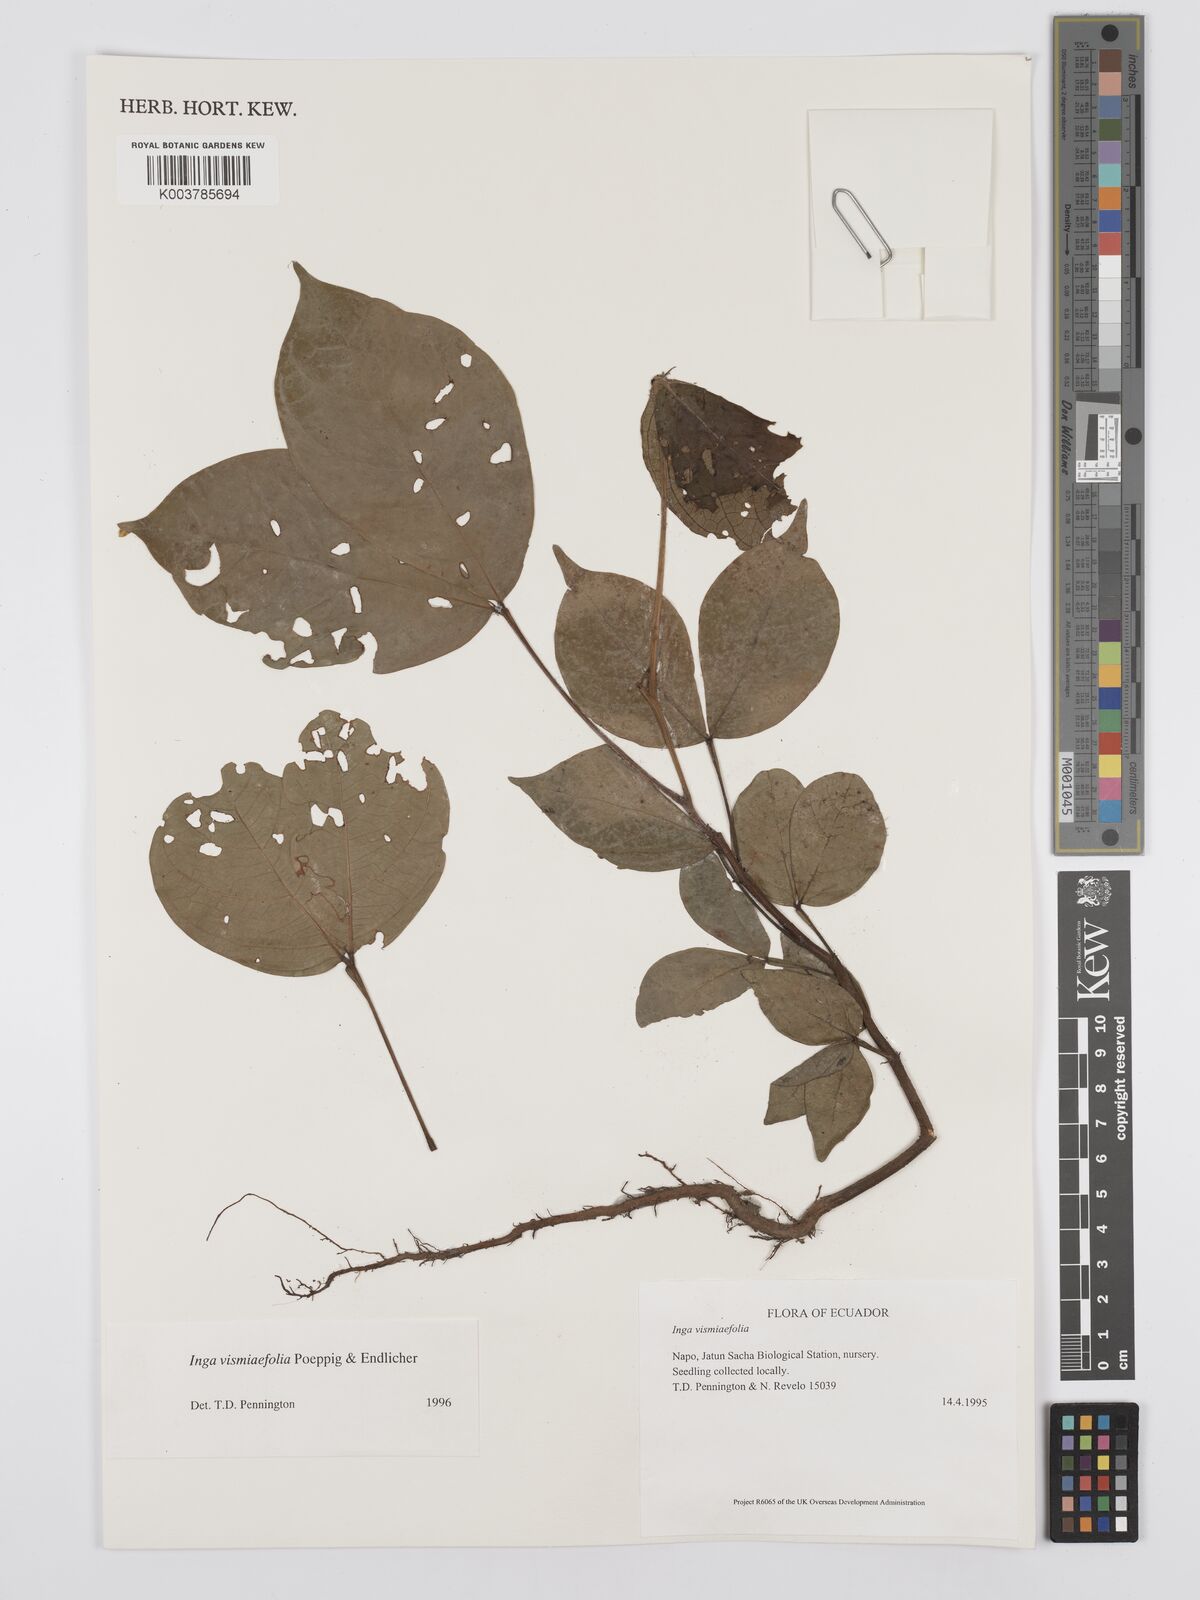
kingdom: Plantae
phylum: Tracheophyta
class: Magnoliopsida
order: Fabales
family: Fabaceae
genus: Inga
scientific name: Inga vismiifolia
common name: Howler monkey inga
